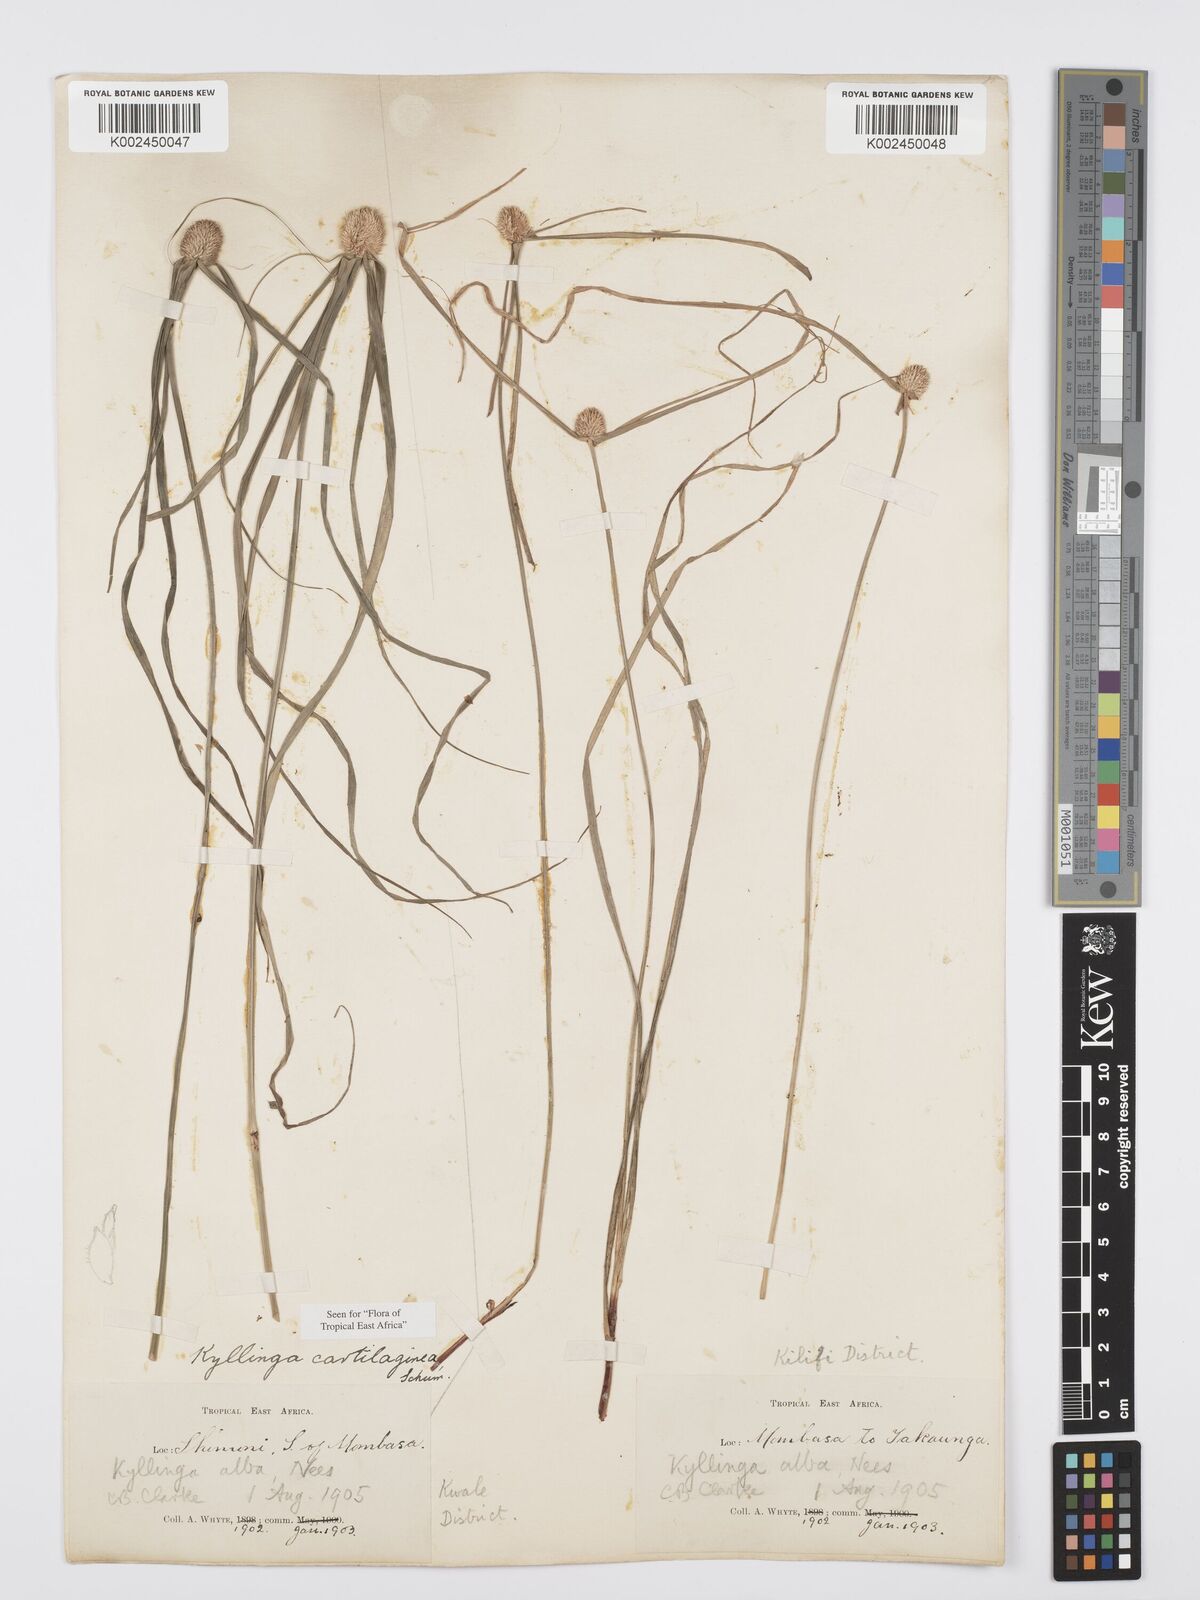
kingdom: Plantae
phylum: Tracheophyta
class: Liliopsida
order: Poales
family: Cyperaceae
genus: Cyperus
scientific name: Cyperus cartilagineus
